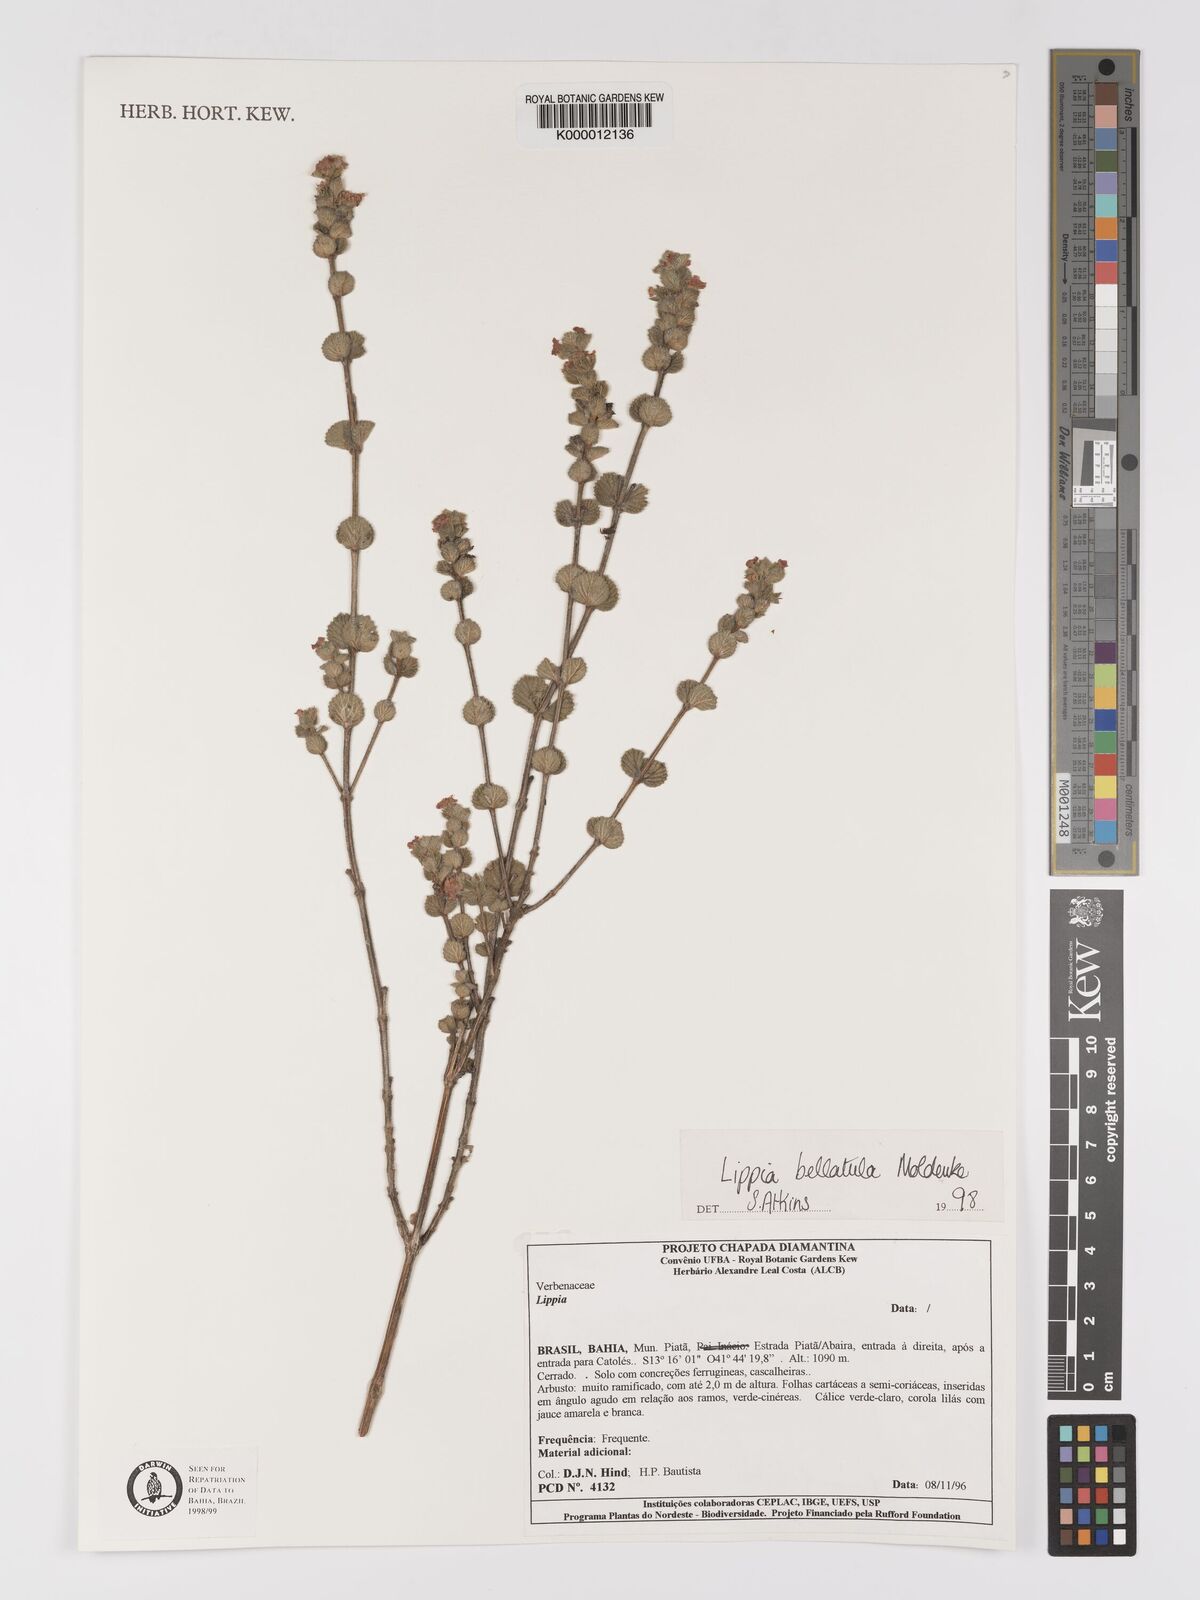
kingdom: Plantae
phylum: Tracheophyta
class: Magnoliopsida
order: Lamiales
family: Verbenaceae
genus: Lippia
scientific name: Lippia bellatula
